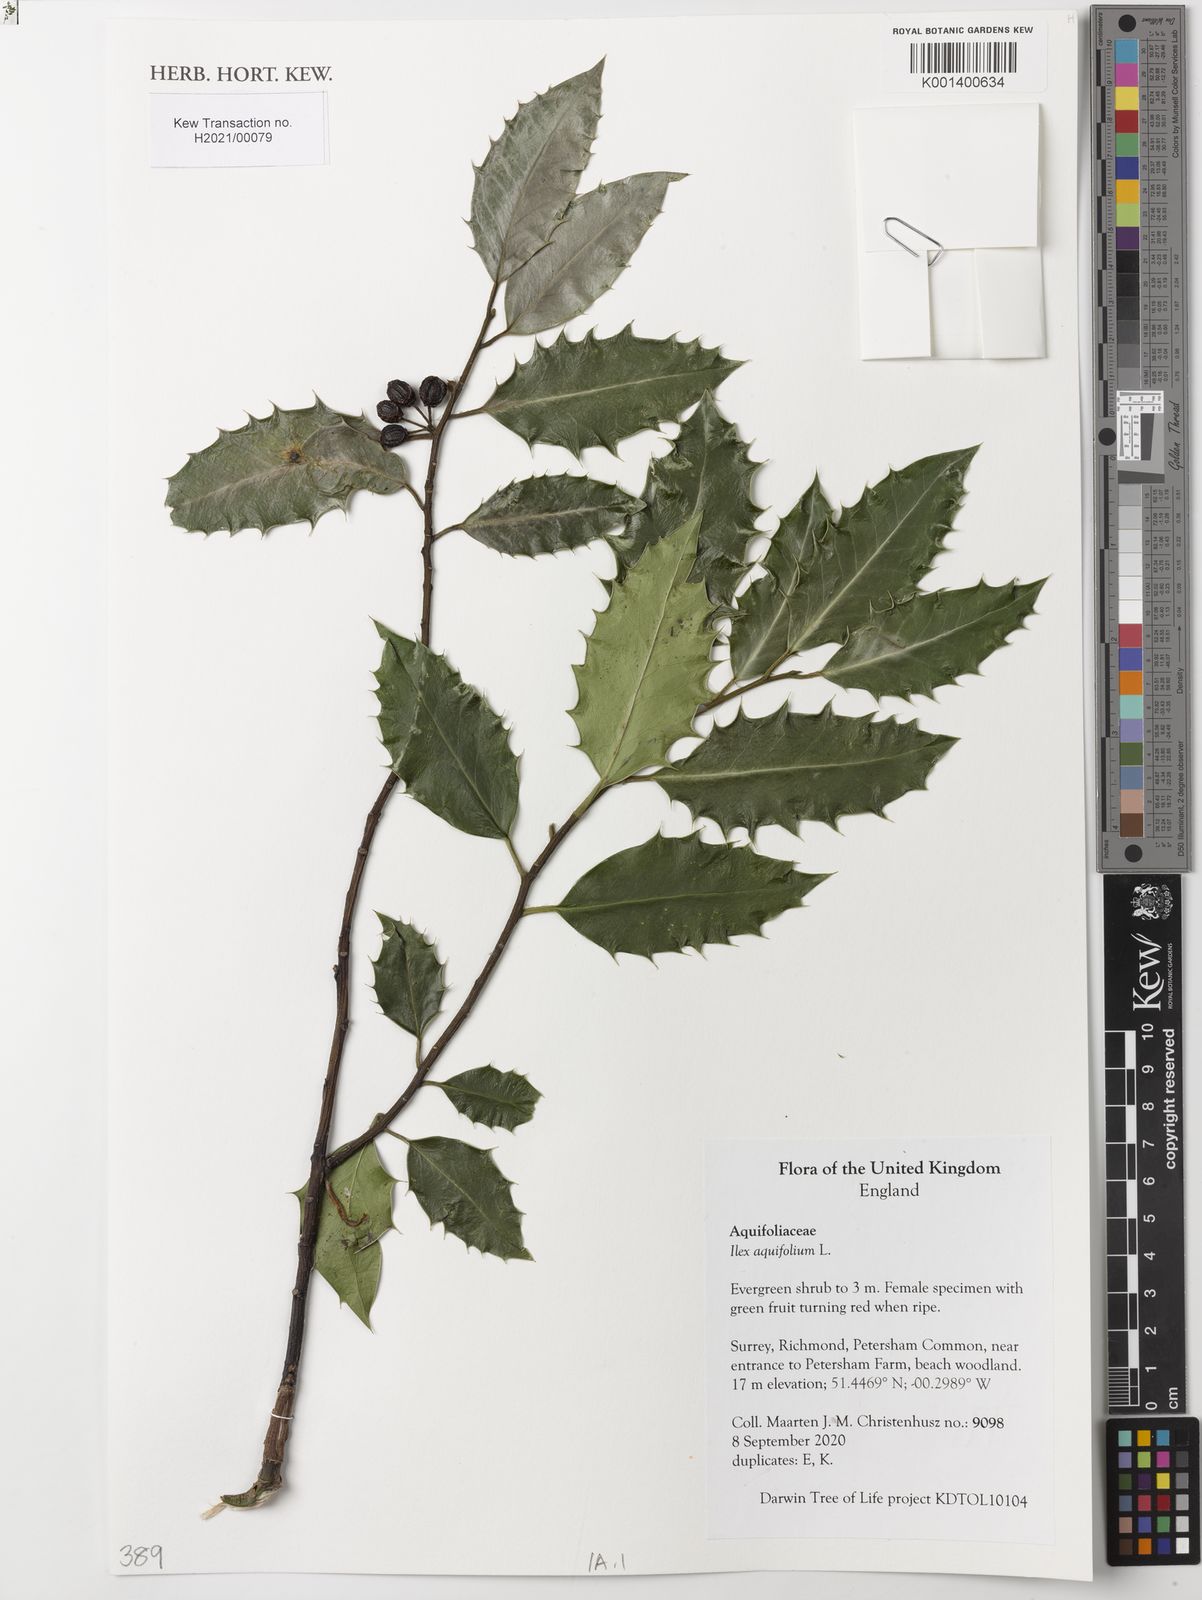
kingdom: Plantae
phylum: Tracheophyta
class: Magnoliopsida
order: Aquifoliales
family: Aquifoliaceae
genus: Ilex
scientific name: Ilex aquifolium
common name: English holly
